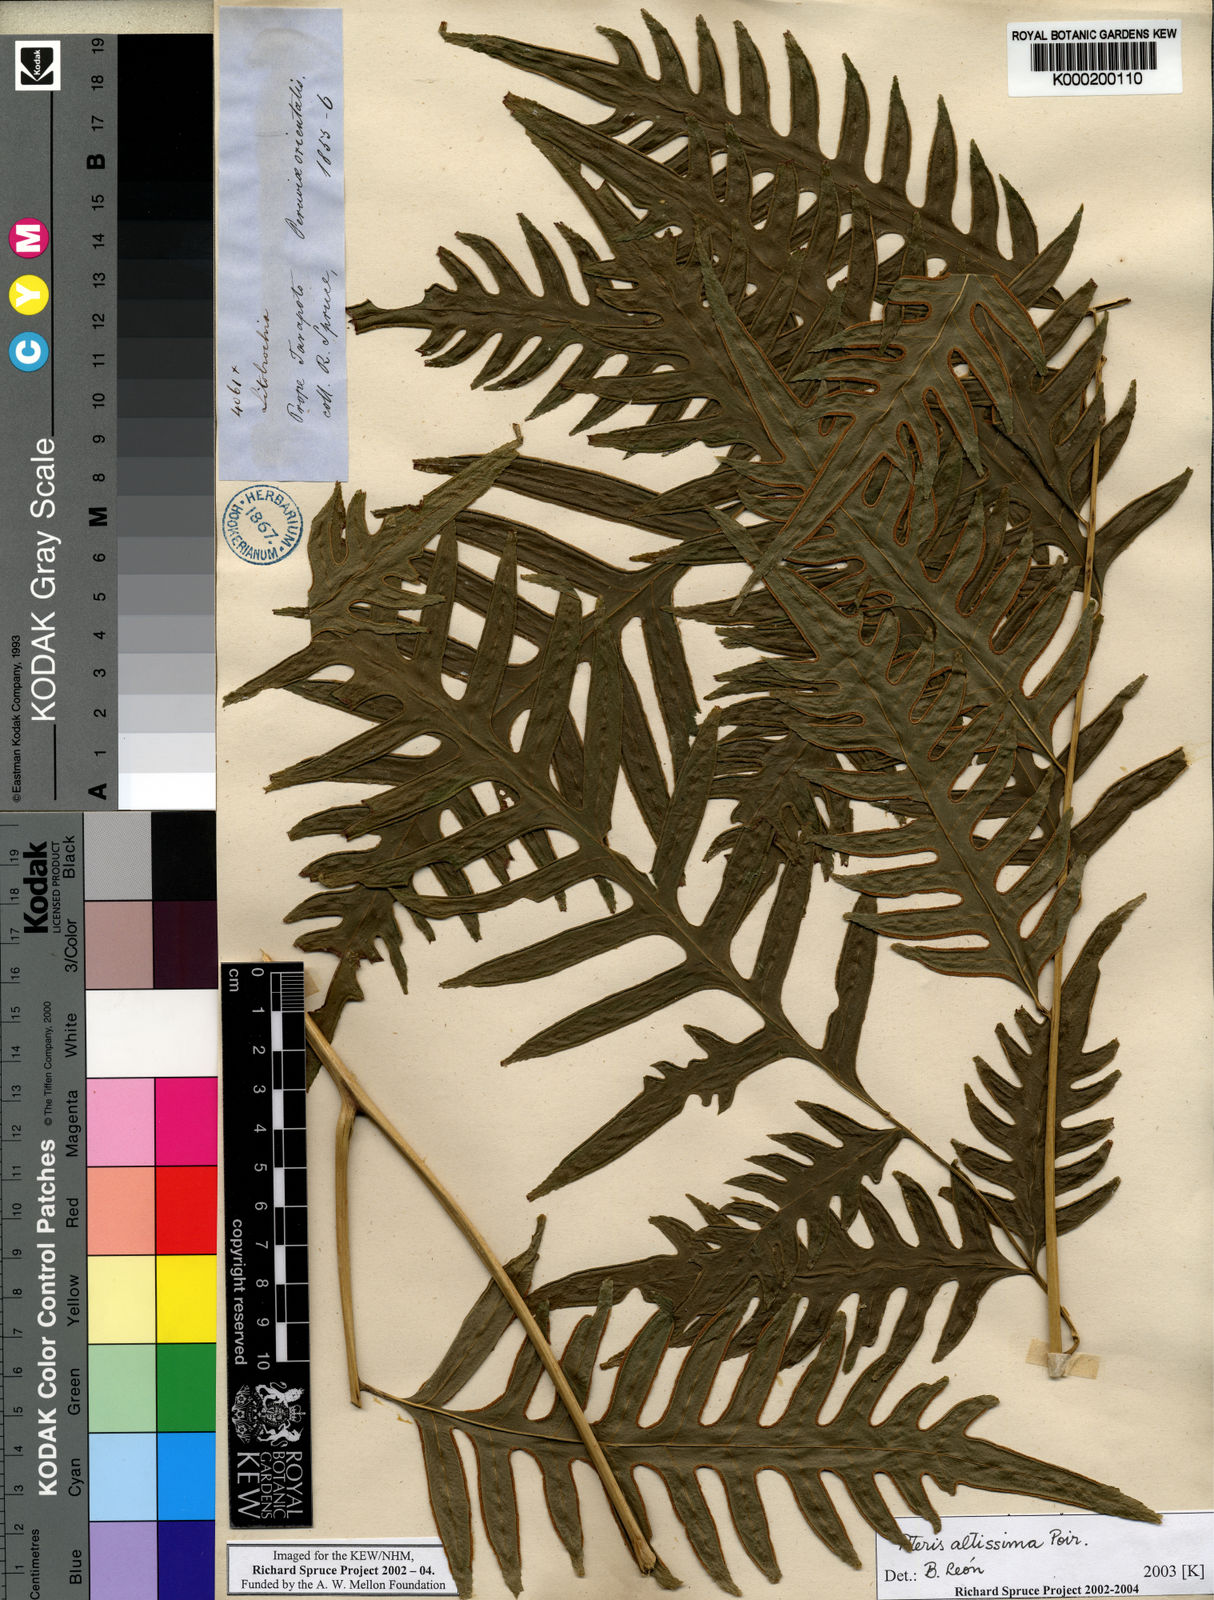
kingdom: Plantae
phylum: Tracheophyta
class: Polypodiopsida
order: Polypodiales
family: Pteridaceae
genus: Pteris
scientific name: Pteris
